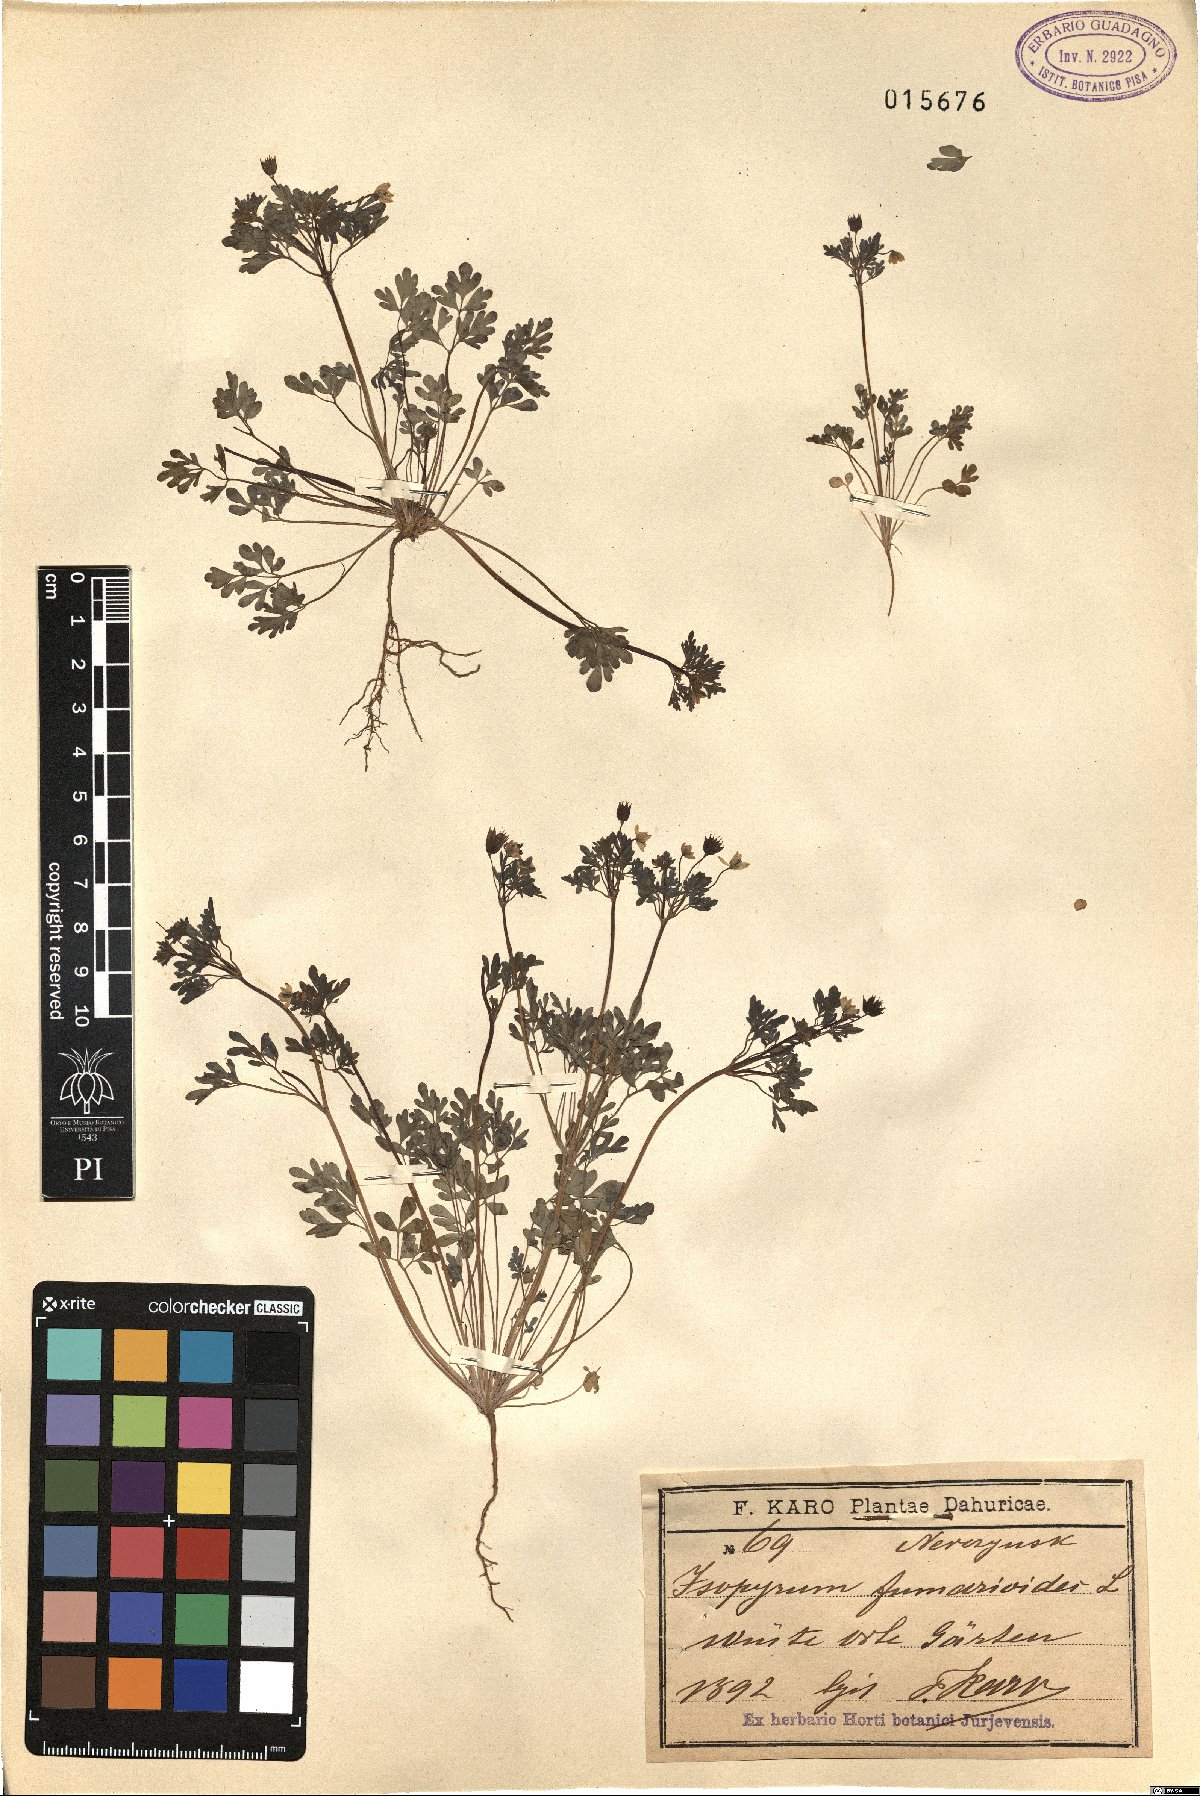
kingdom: Plantae
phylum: Tracheophyta
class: Magnoliopsida
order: Ranunculales
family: Ranunculaceae
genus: Leptopyrum
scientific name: Leptopyrum fumarioides
